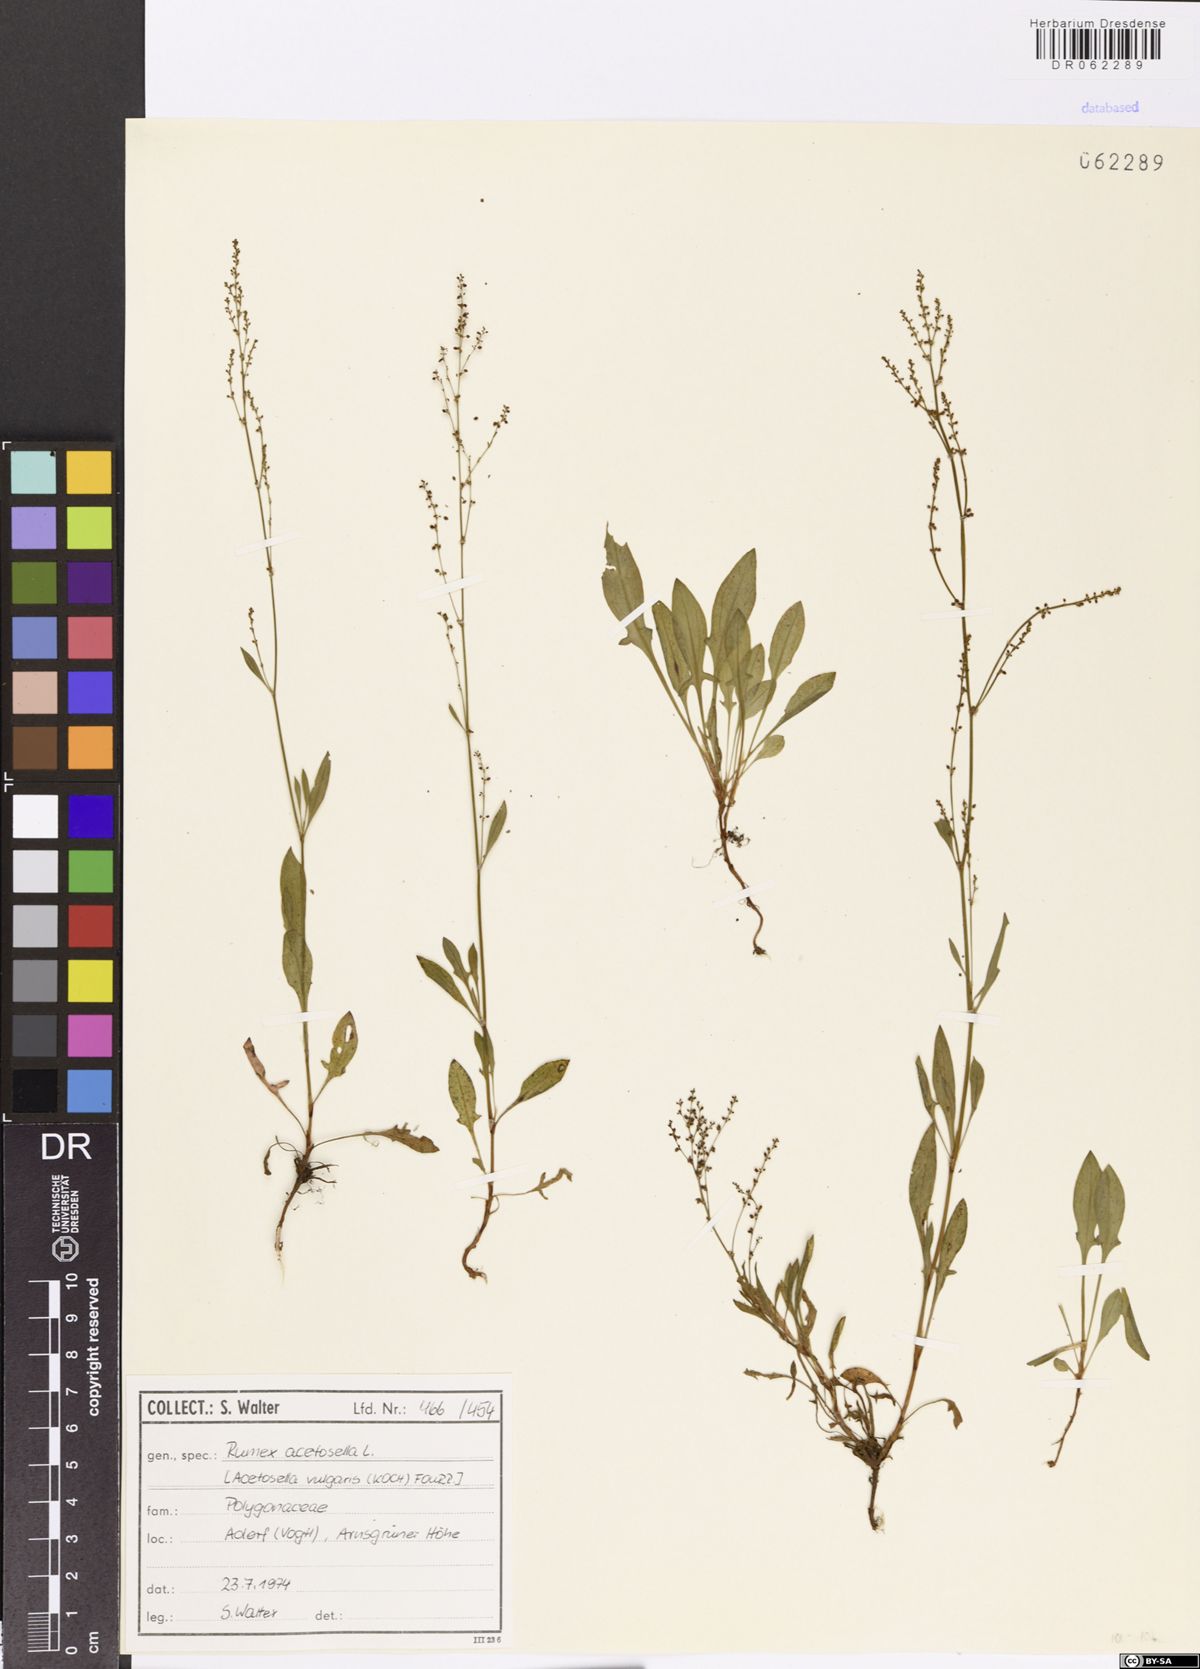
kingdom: Plantae
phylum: Tracheophyta
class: Magnoliopsida
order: Caryophyllales
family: Polygonaceae
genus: Rumex
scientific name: Rumex acetosella
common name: Common sheep sorrel
